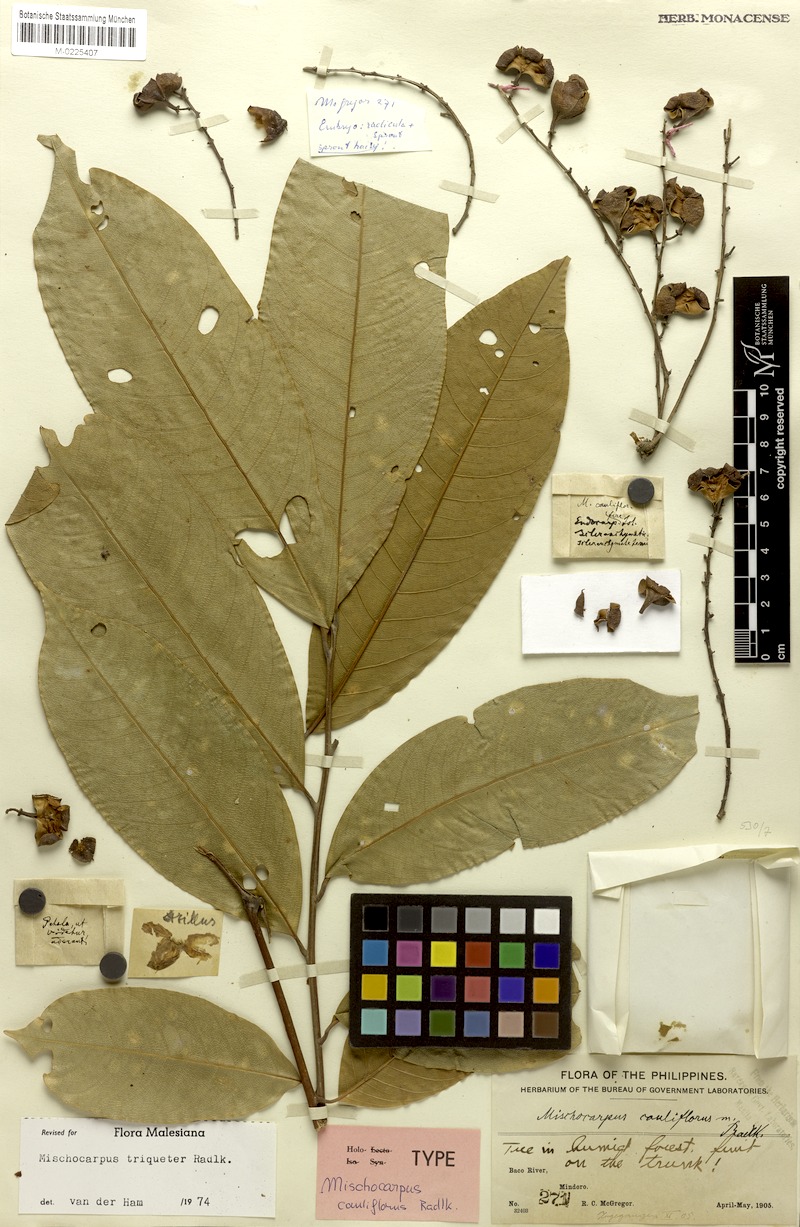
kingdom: Plantae
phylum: Tracheophyta
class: Magnoliopsida
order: Sapindales
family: Sapindaceae
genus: Mischocarpus
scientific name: Mischocarpus triqueter
